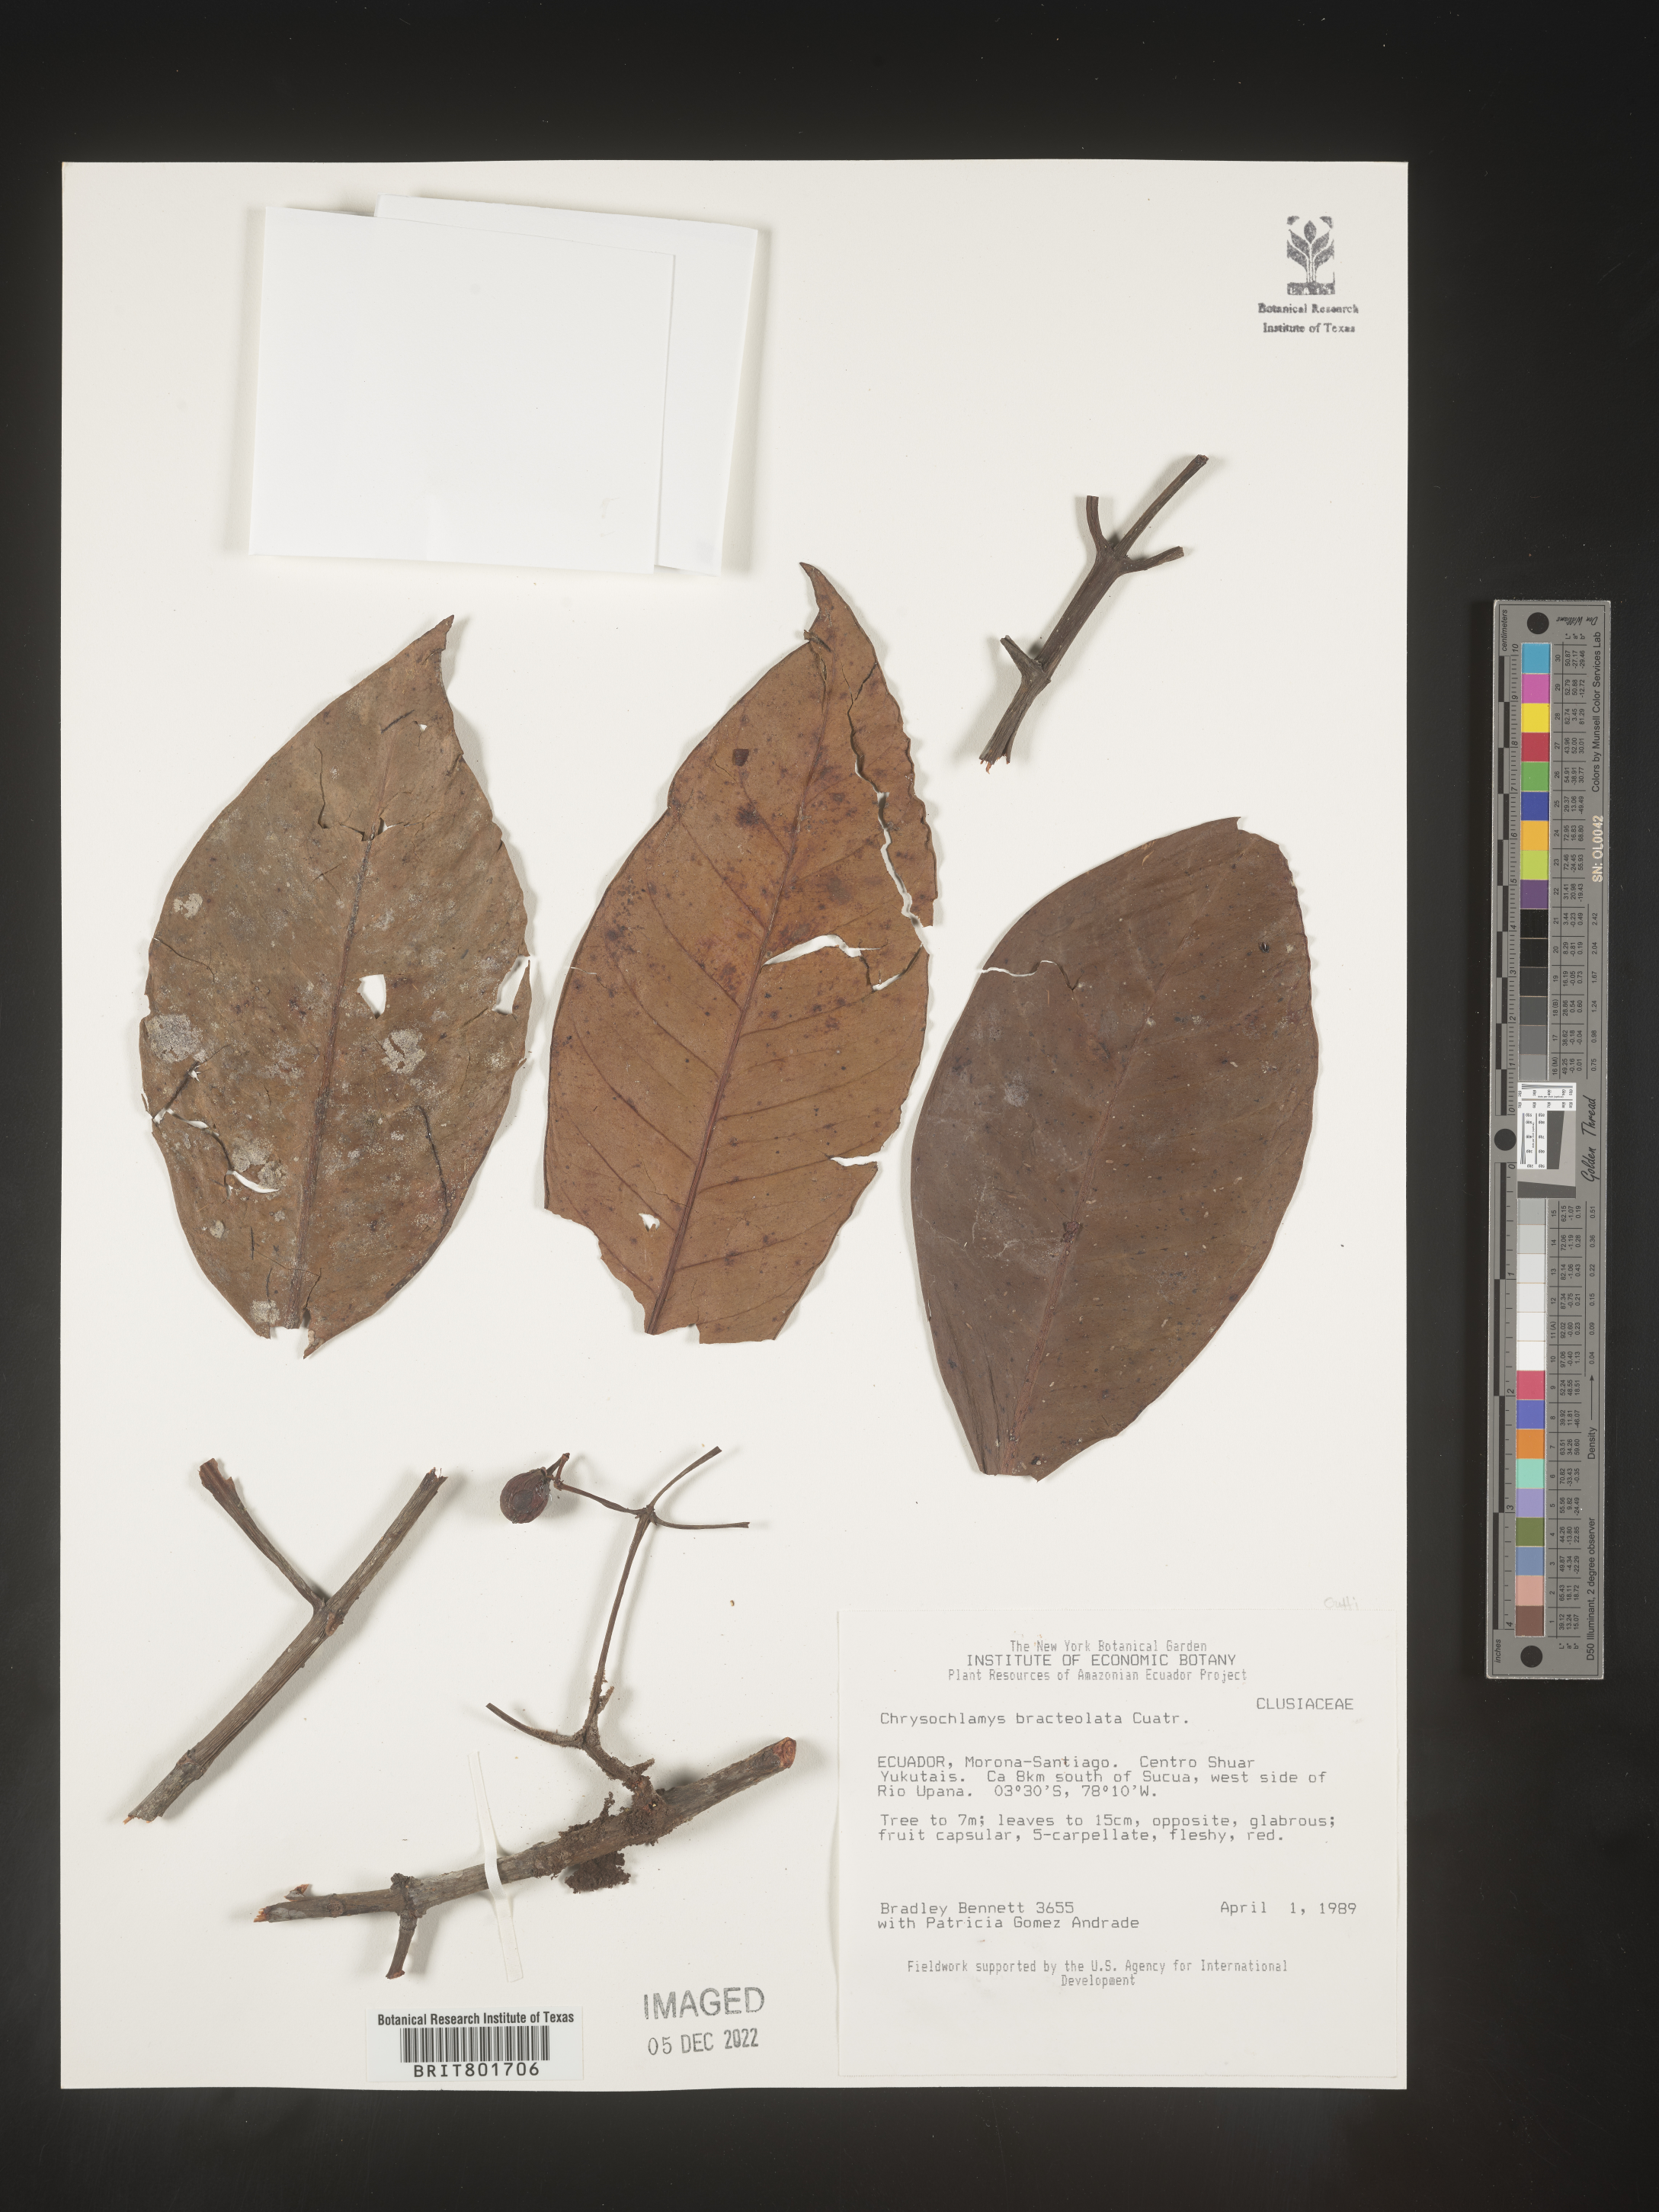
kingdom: Plantae
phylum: Tracheophyta
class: Magnoliopsida
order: Malpighiales
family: Clusiaceae
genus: Chrysochlamys
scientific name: Chrysochlamys
